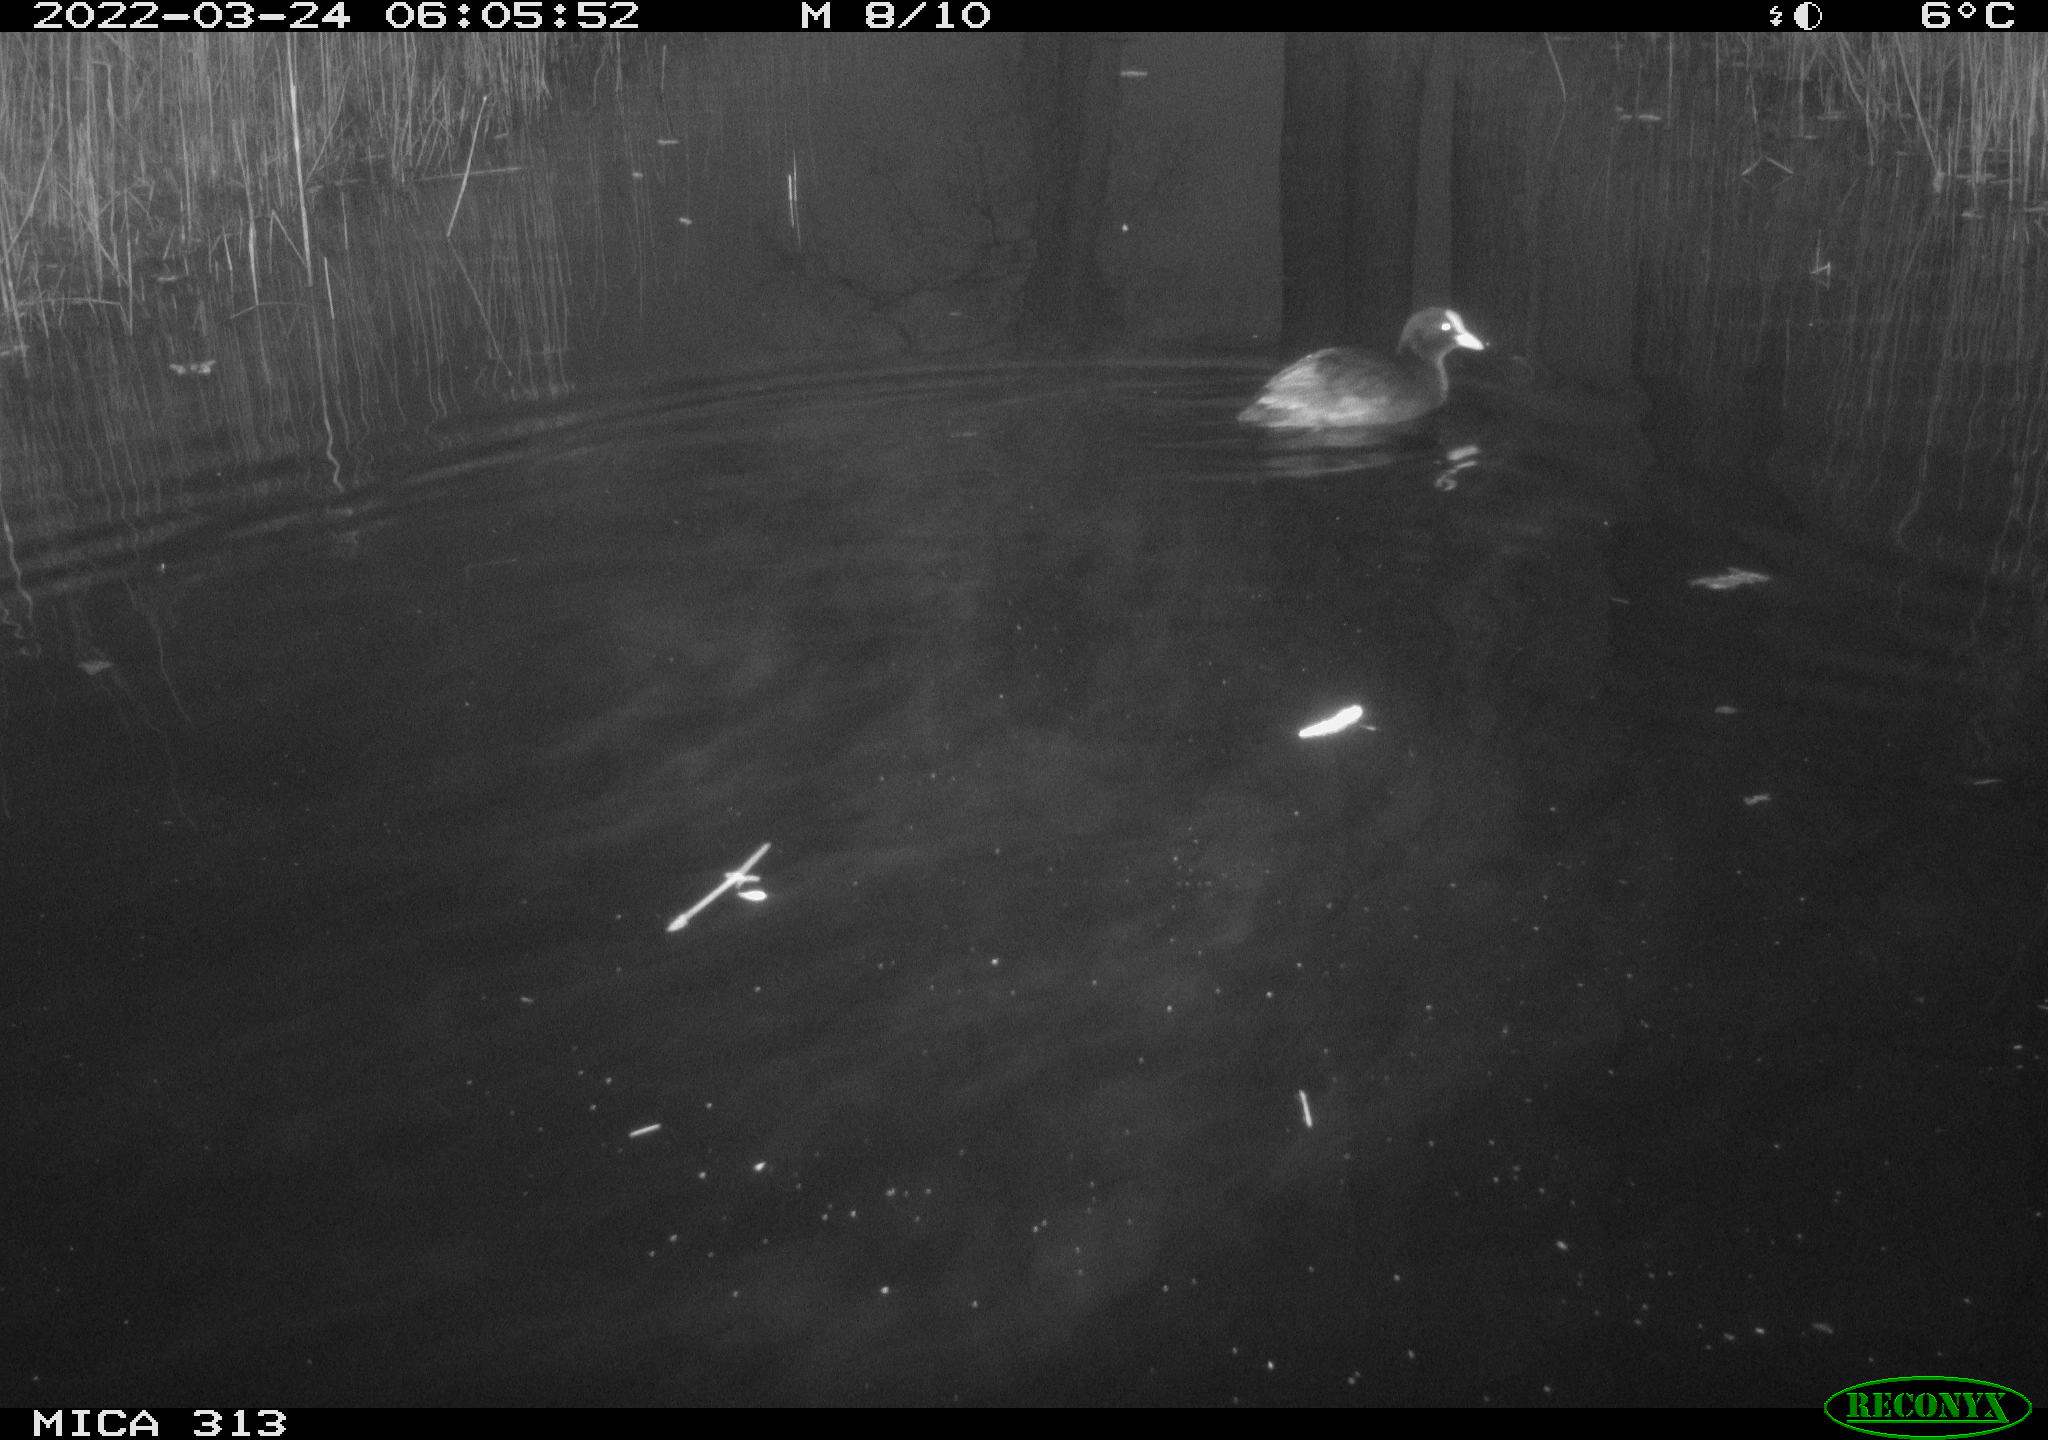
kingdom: Animalia
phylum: Chordata
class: Aves
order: Gruiformes
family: Rallidae
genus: Fulica
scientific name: Fulica atra
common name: Eurasian coot
